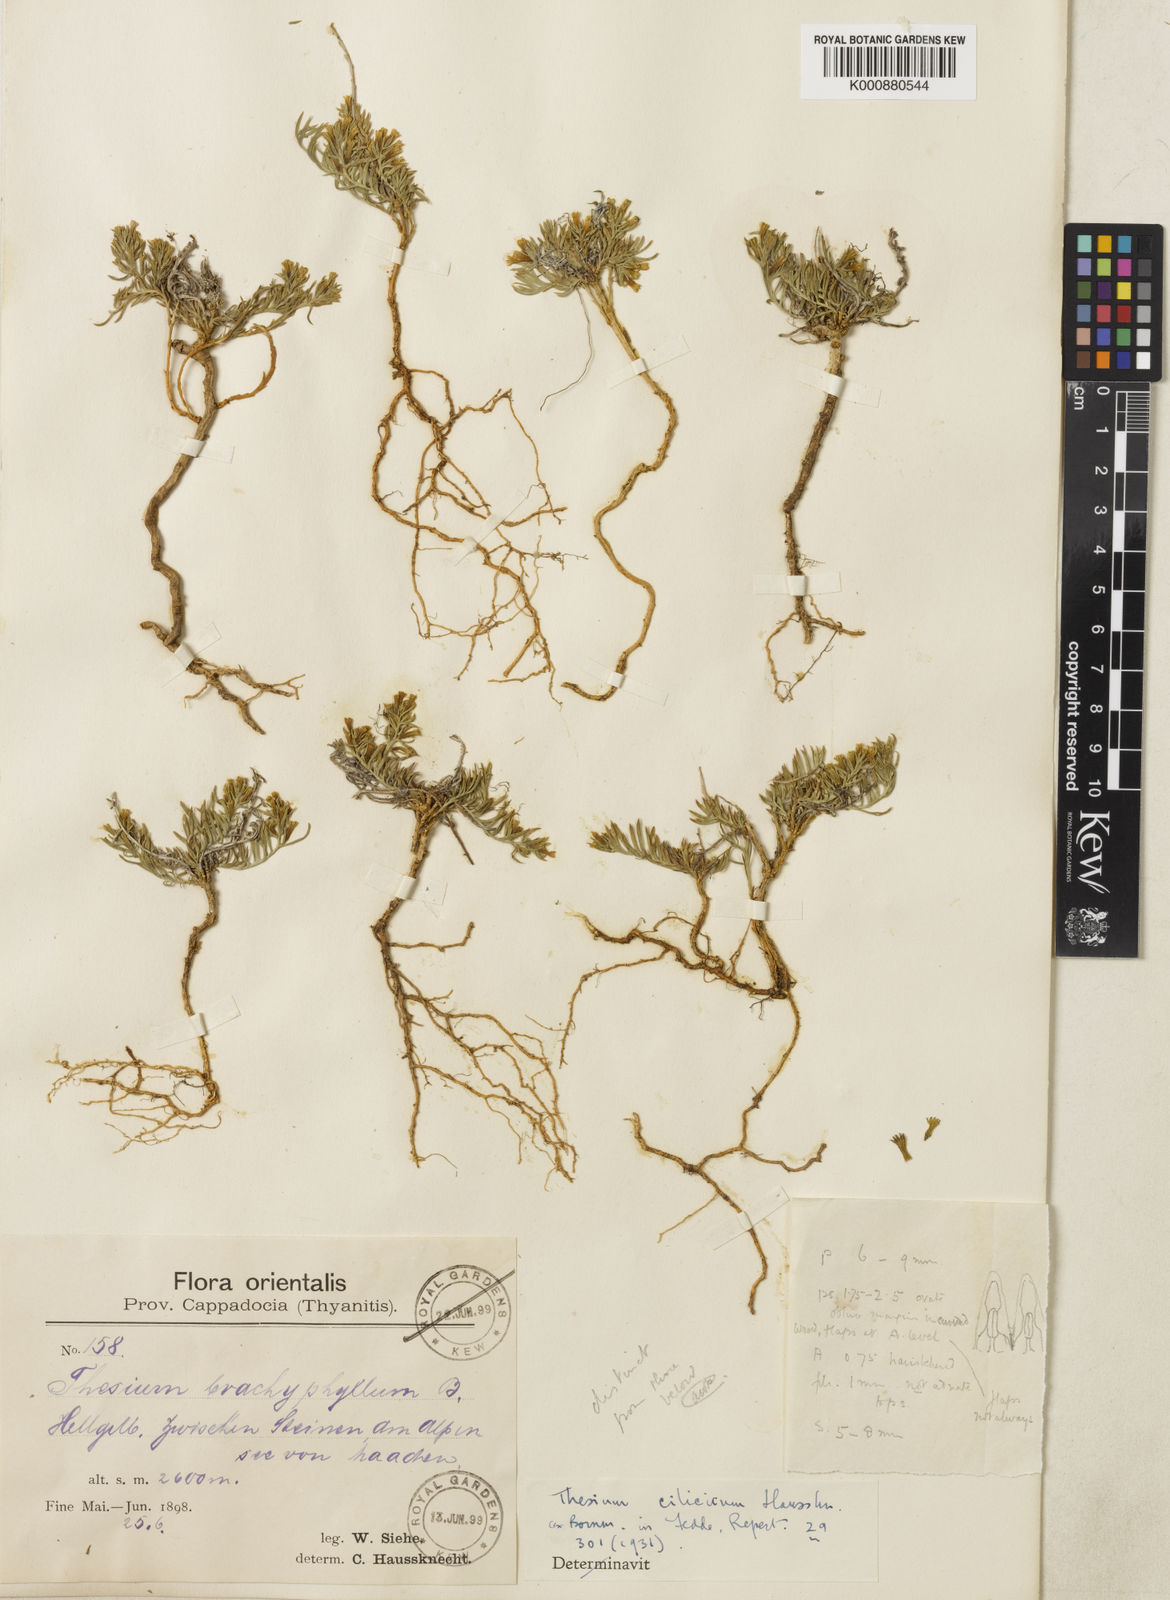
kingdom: Plantae
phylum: Tracheophyta
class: Magnoliopsida
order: Santalales
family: Thesiaceae
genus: Chrysothesium
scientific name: Chrysothesium cilicicum
